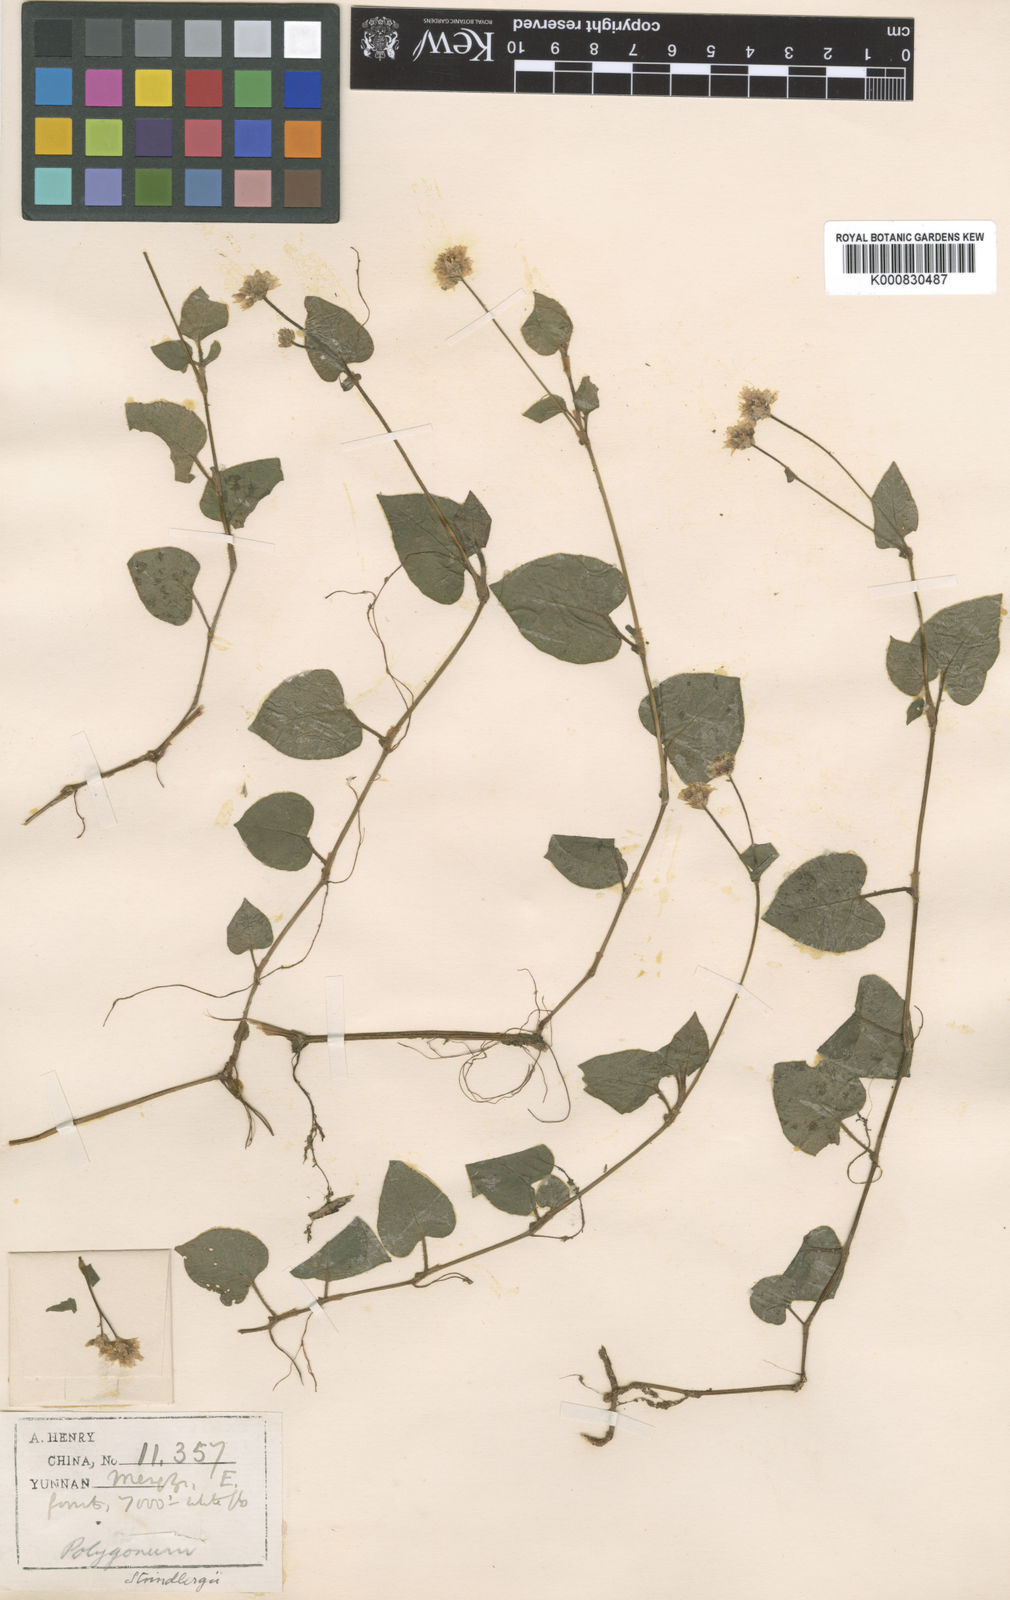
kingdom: Plantae
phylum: Tracheophyta
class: Magnoliopsida
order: Caryophyllales
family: Polygonaceae
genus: Persicaria
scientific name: Persicaria strindbergii
